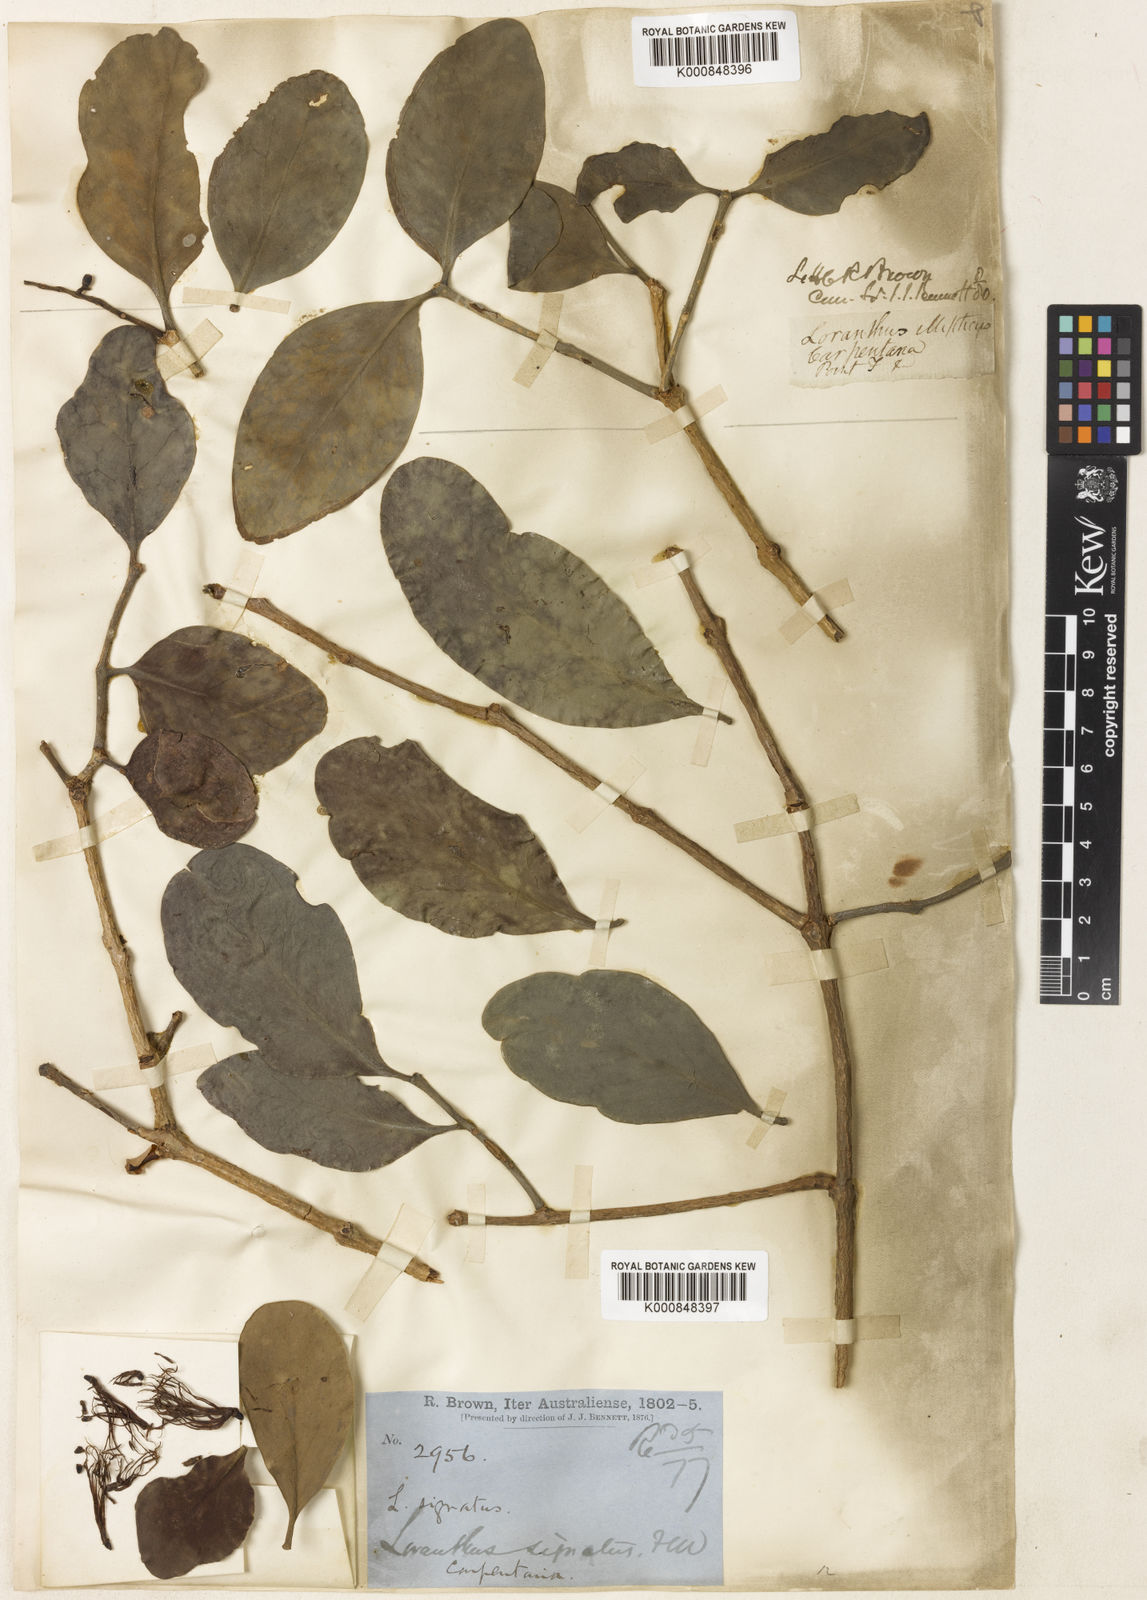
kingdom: Plantae
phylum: Tracheophyta
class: Magnoliopsida
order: Santalales
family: Loranthaceae
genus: Decaisnina
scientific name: Decaisnina signata
